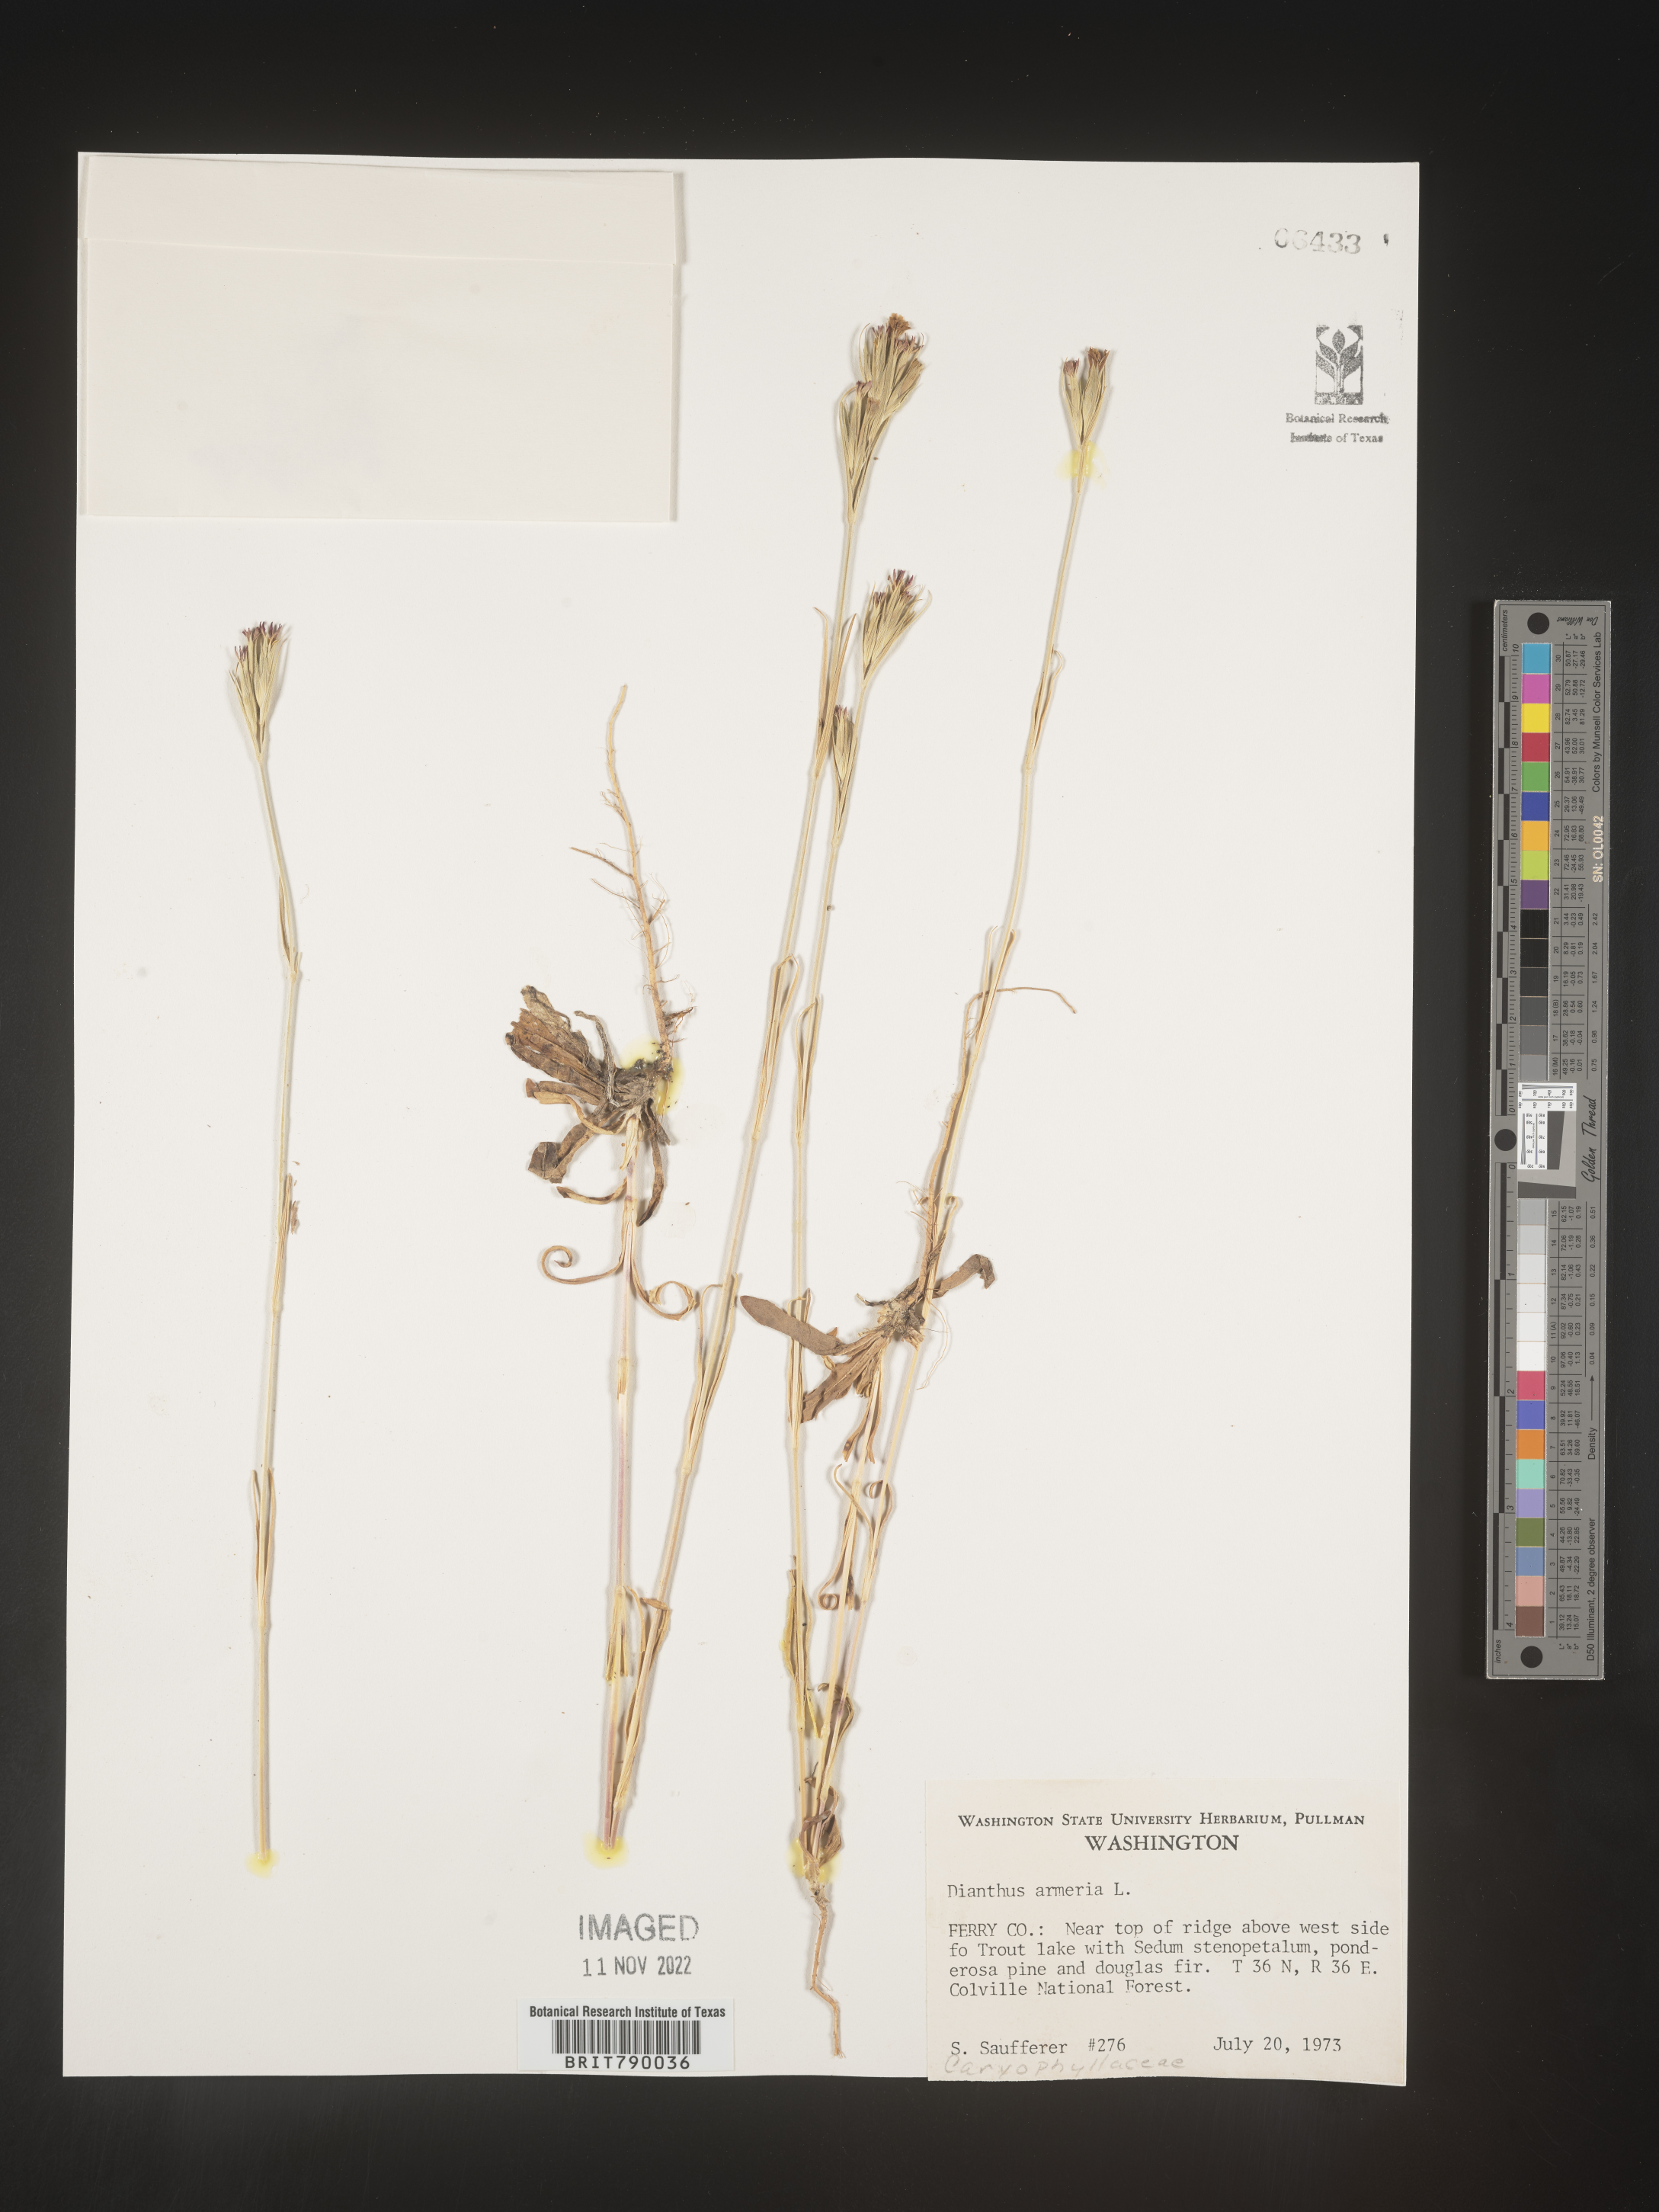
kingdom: Plantae
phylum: Tracheophyta
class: Magnoliopsida
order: Caryophyllales
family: Caryophyllaceae
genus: Dianthus
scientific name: Dianthus armeria
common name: Deptford pink
